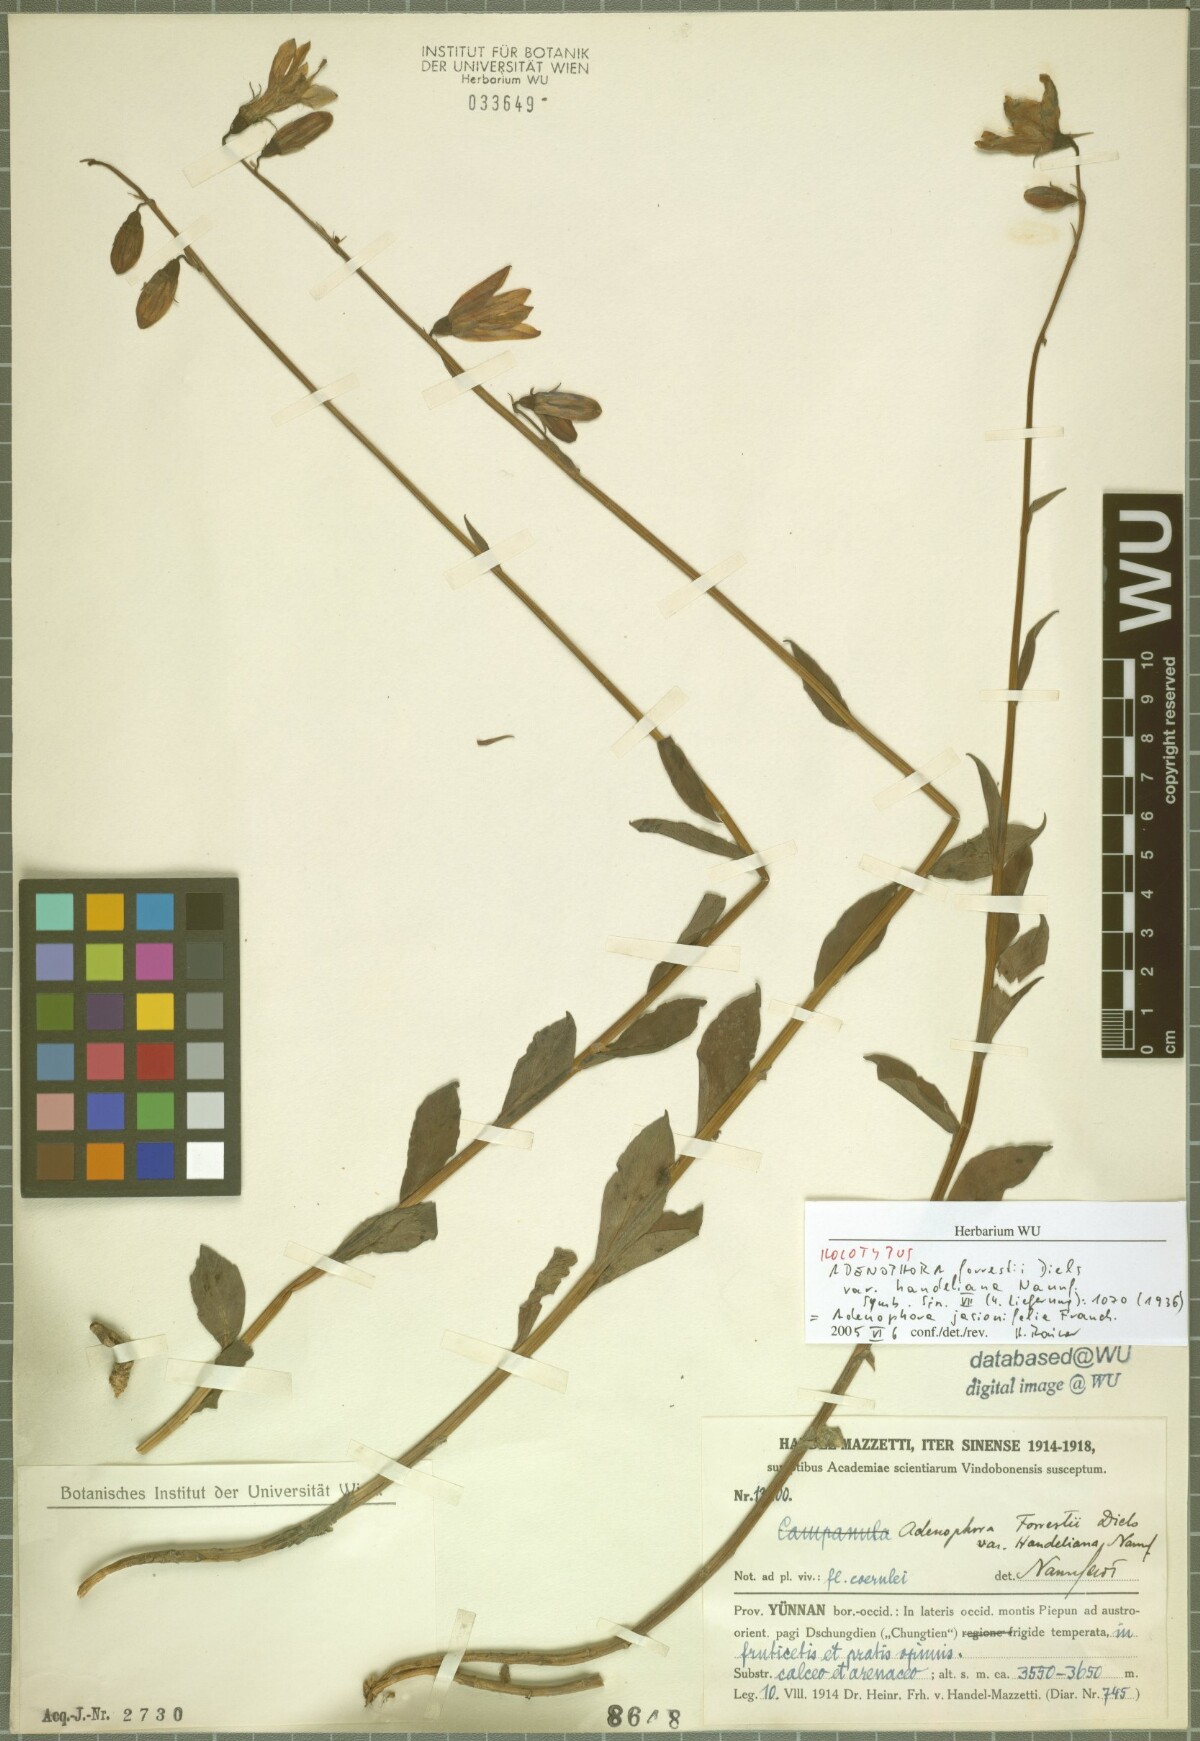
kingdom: Plantae
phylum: Tracheophyta
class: Magnoliopsida
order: Asterales
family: Campanulaceae
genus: Adenophora
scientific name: Adenophora jasionifolia
